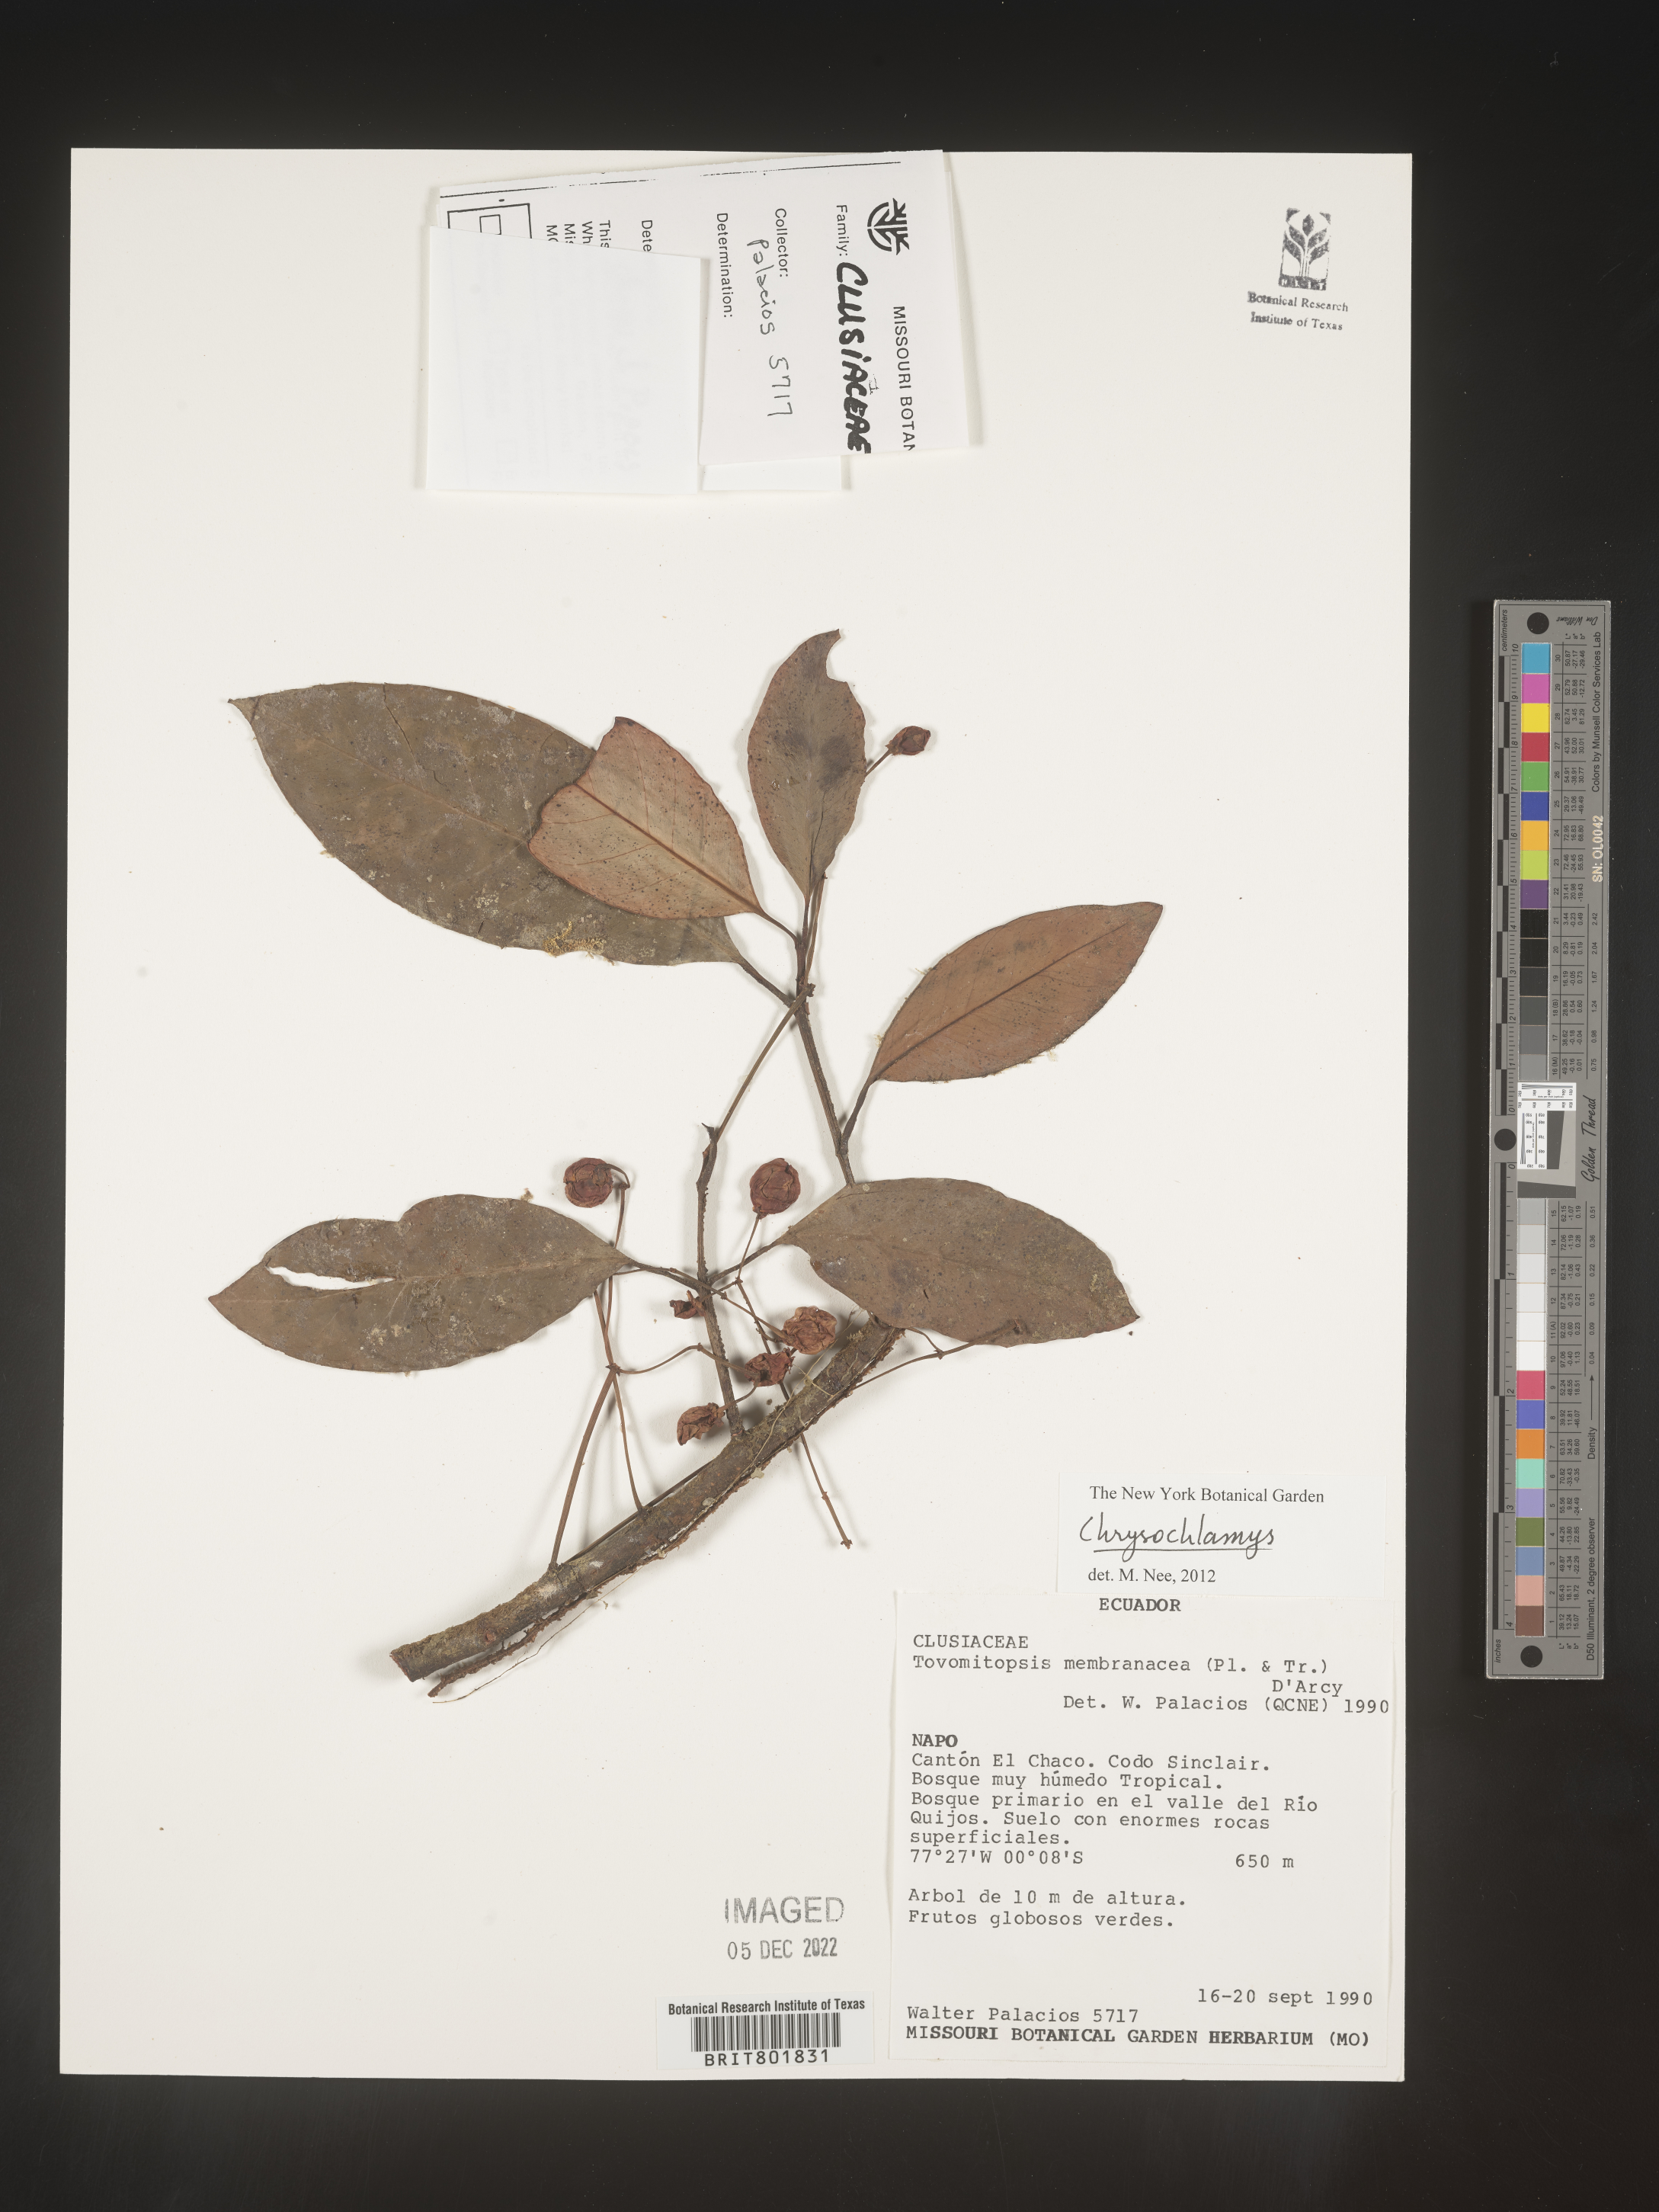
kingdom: Plantae
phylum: Tracheophyta
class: Magnoliopsida
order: Malpighiales
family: Clusiaceae
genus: Chrysochlamys
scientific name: Chrysochlamys
